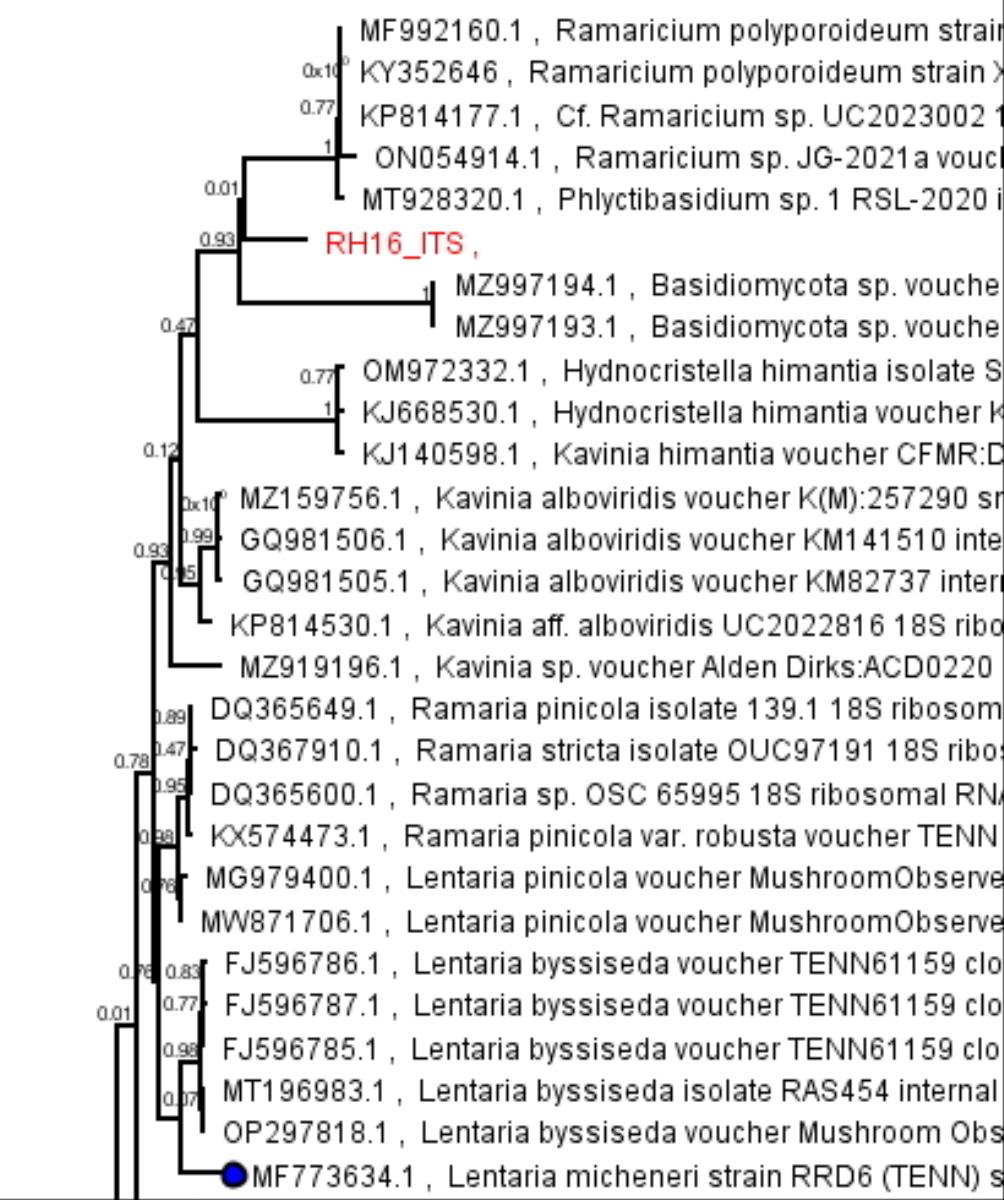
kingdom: Fungi
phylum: Basidiomycota
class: Agaricomycetes
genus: Phlyctibasidium
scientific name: Phlyctibasidium polyporoideum
